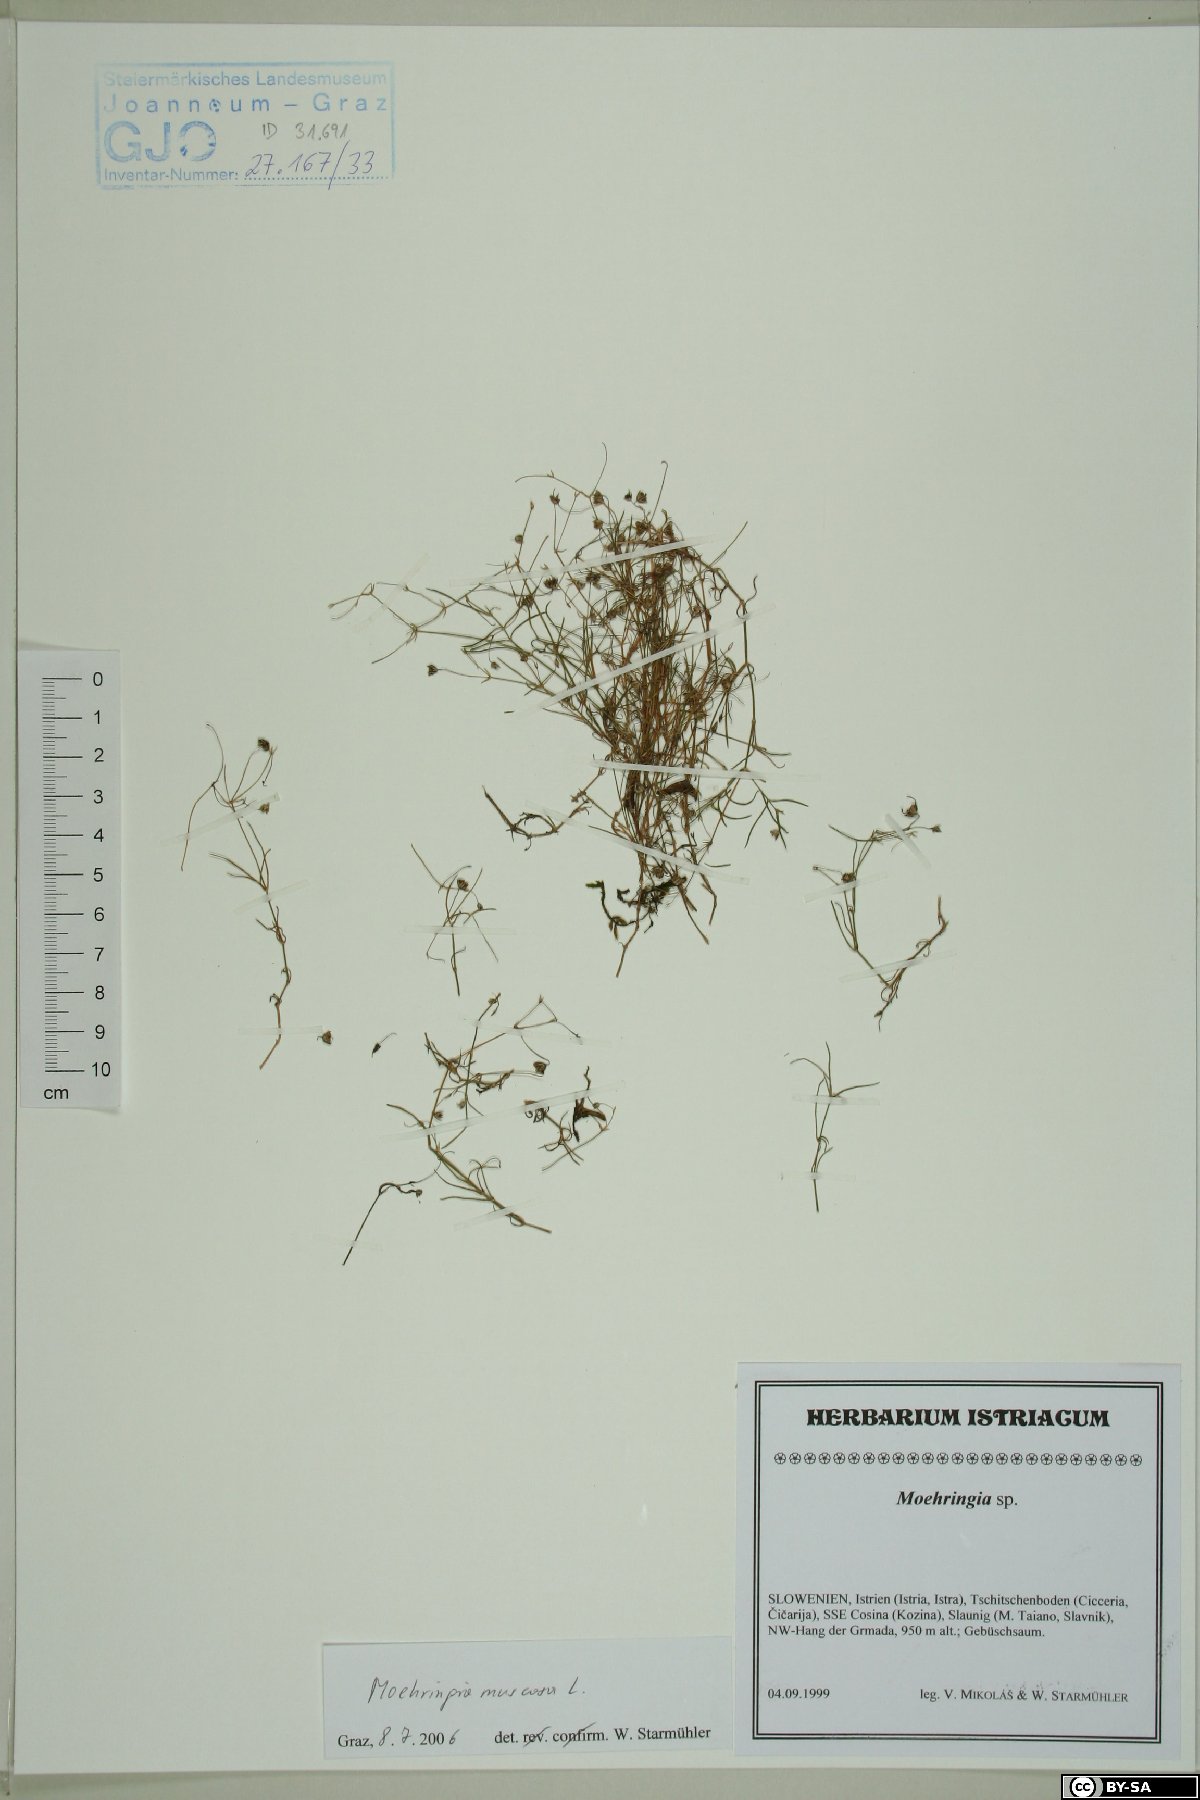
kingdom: Plantae
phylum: Tracheophyta
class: Magnoliopsida
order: Caryophyllales
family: Caryophyllaceae
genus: Moehringia
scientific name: Moehringia muscosa
